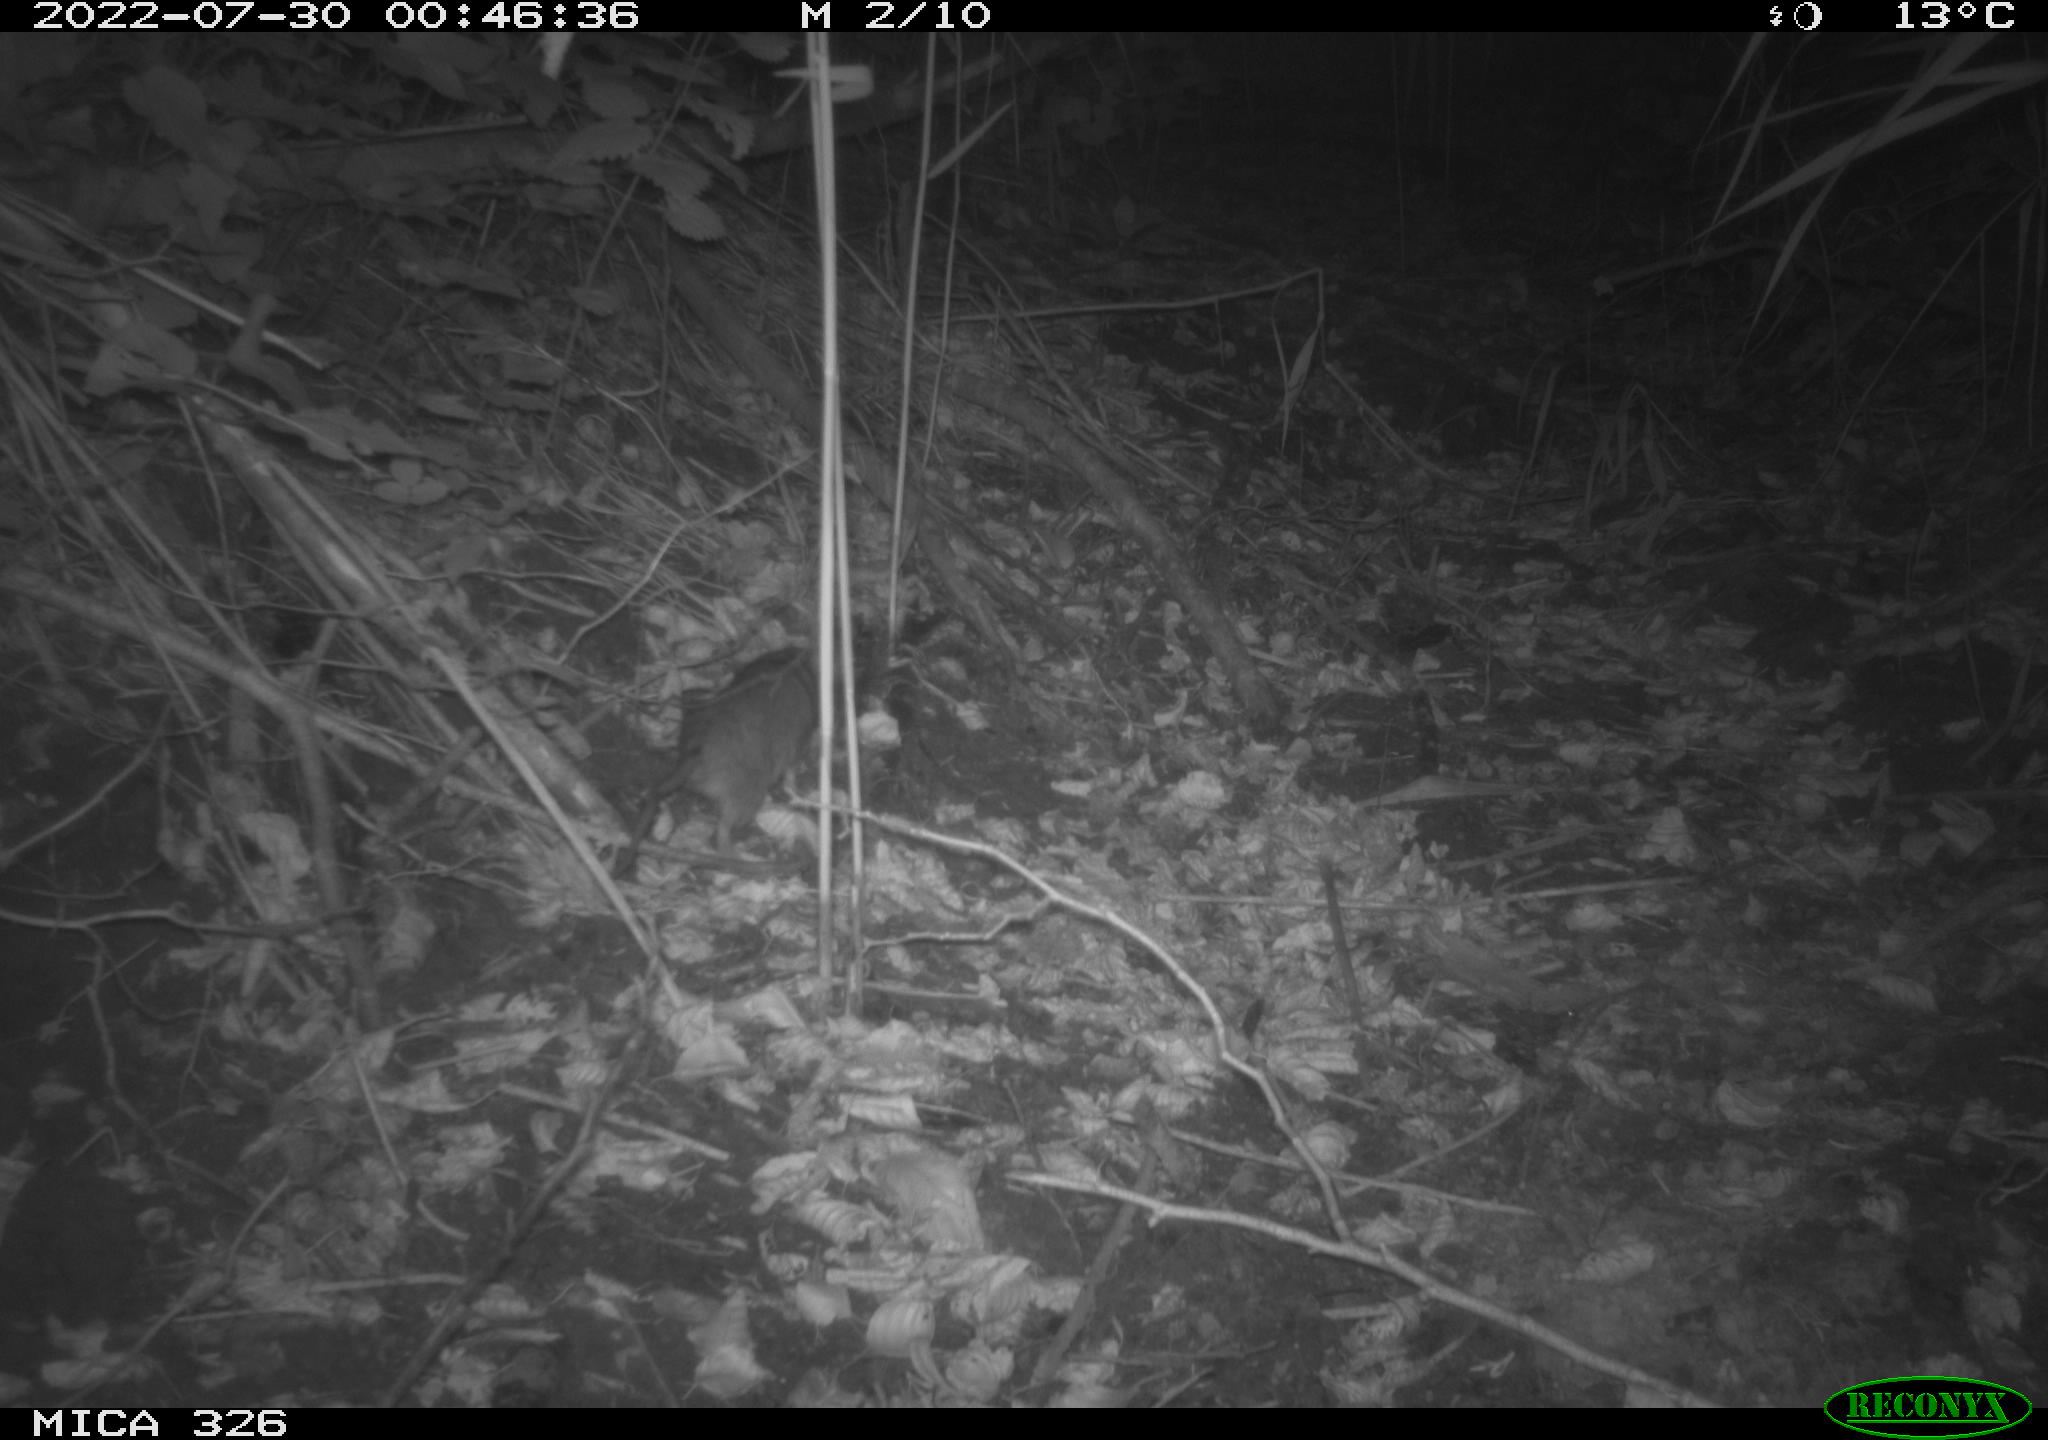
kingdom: Animalia
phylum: Chordata
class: Mammalia
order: Rodentia
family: Muridae
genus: Rattus
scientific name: Rattus norvegicus
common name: Brown rat
